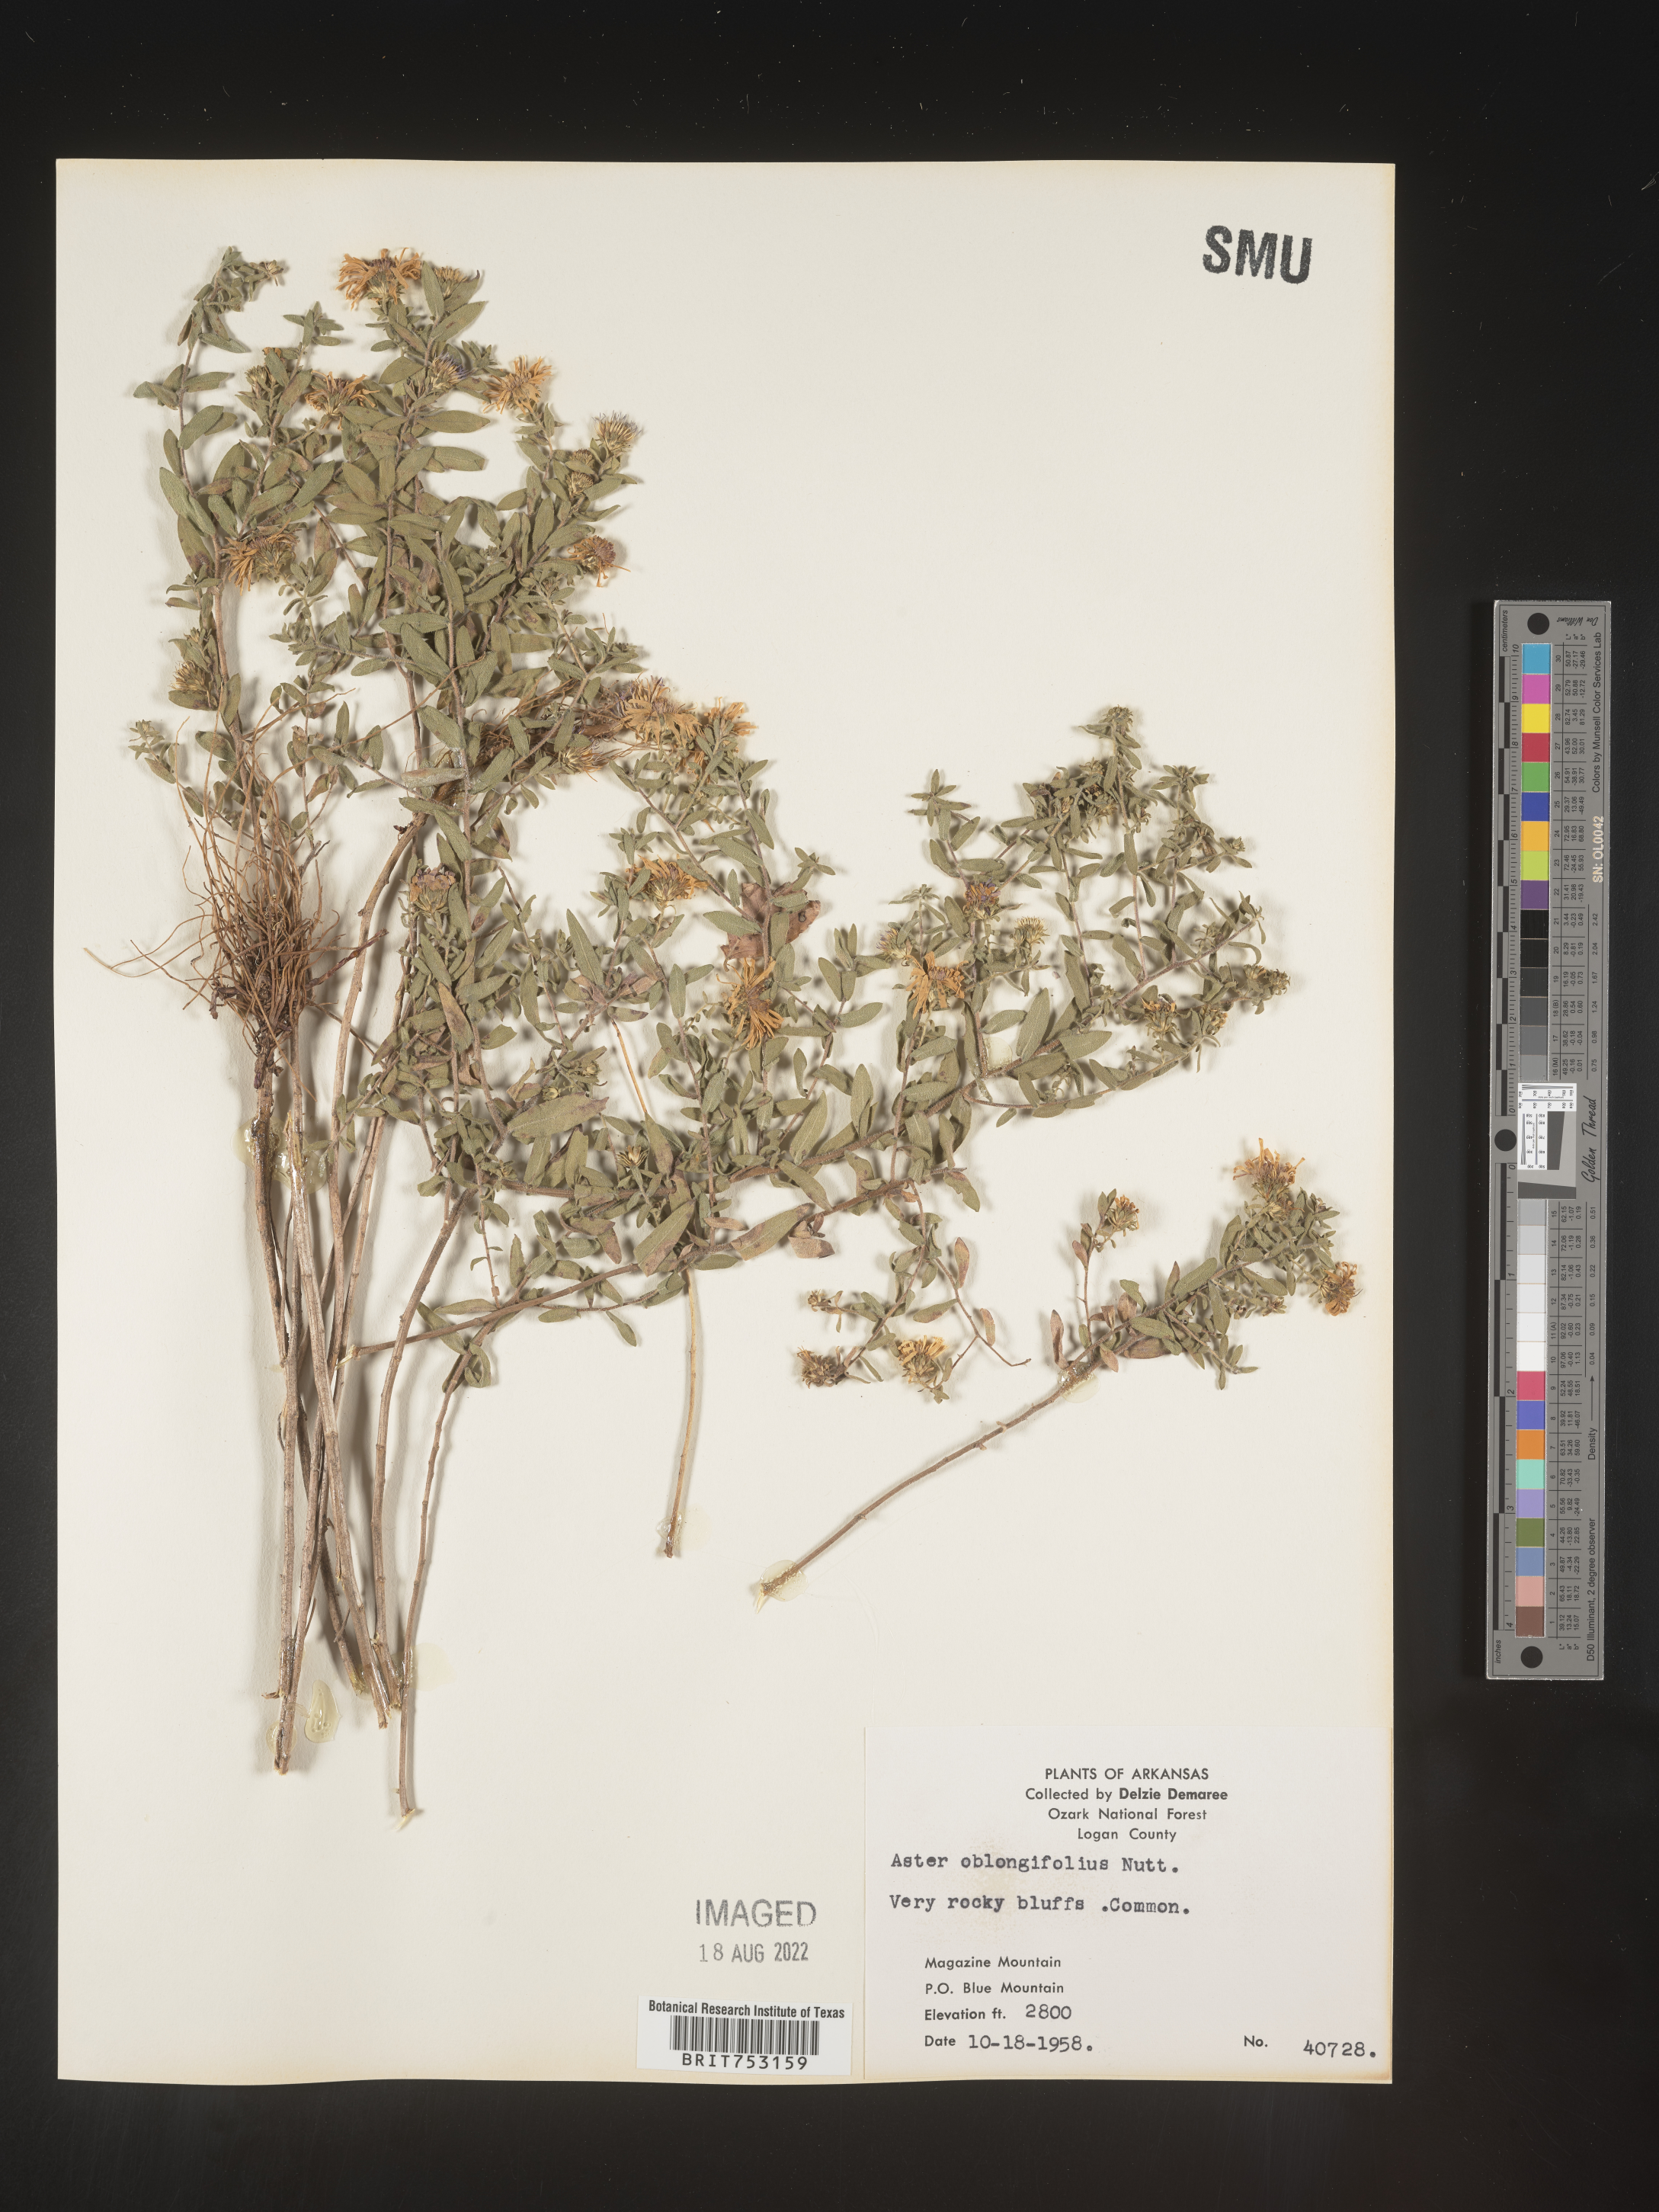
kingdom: Plantae
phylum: Tracheophyta
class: Magnoliopsida
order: Asterales
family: Asteraceae
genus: Symphyotrichum
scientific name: Symphyotrichum oblongifolium
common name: Aromatic aster
